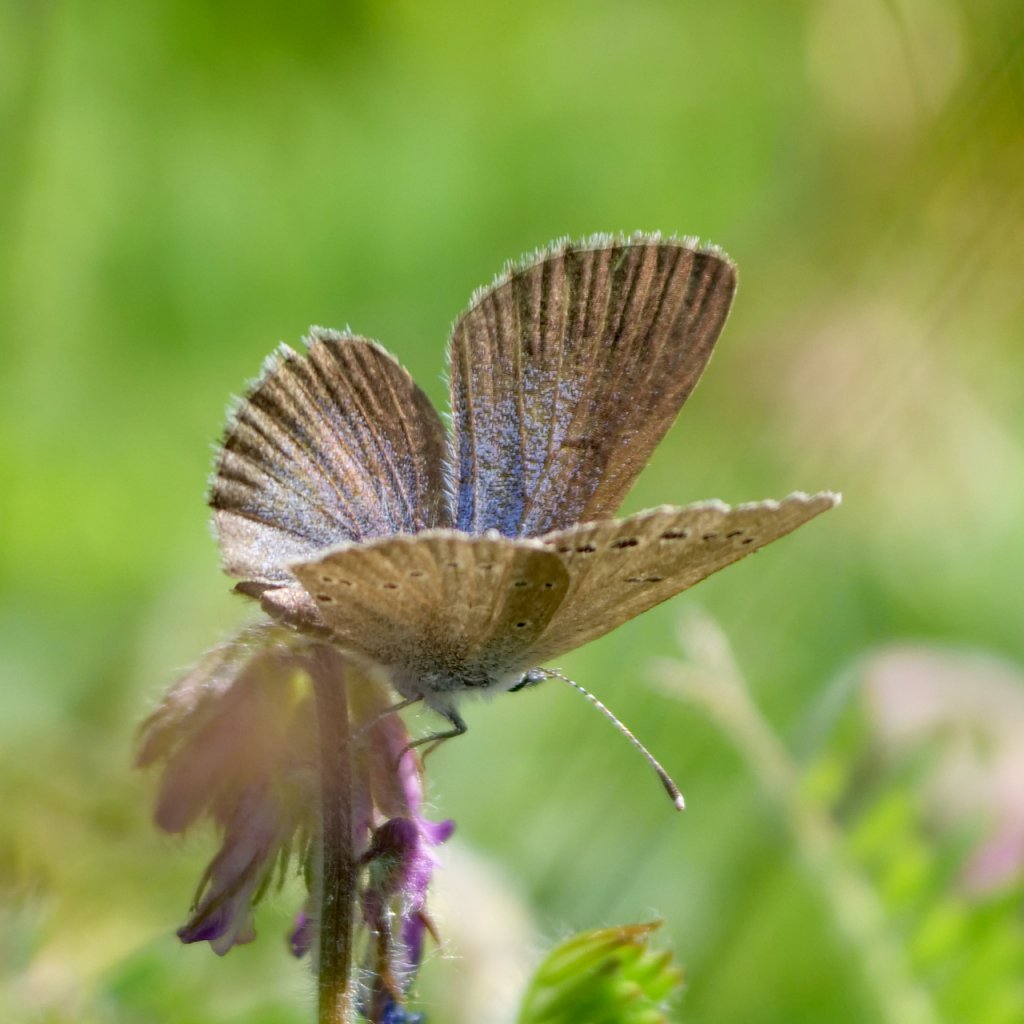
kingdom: Animalia
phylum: Arthropoda
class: Insecta
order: Lepidoptera
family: Lycaenidae
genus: Glaucopsyche
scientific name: Glaucopsyche lygdamus
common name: Silvery Blue
